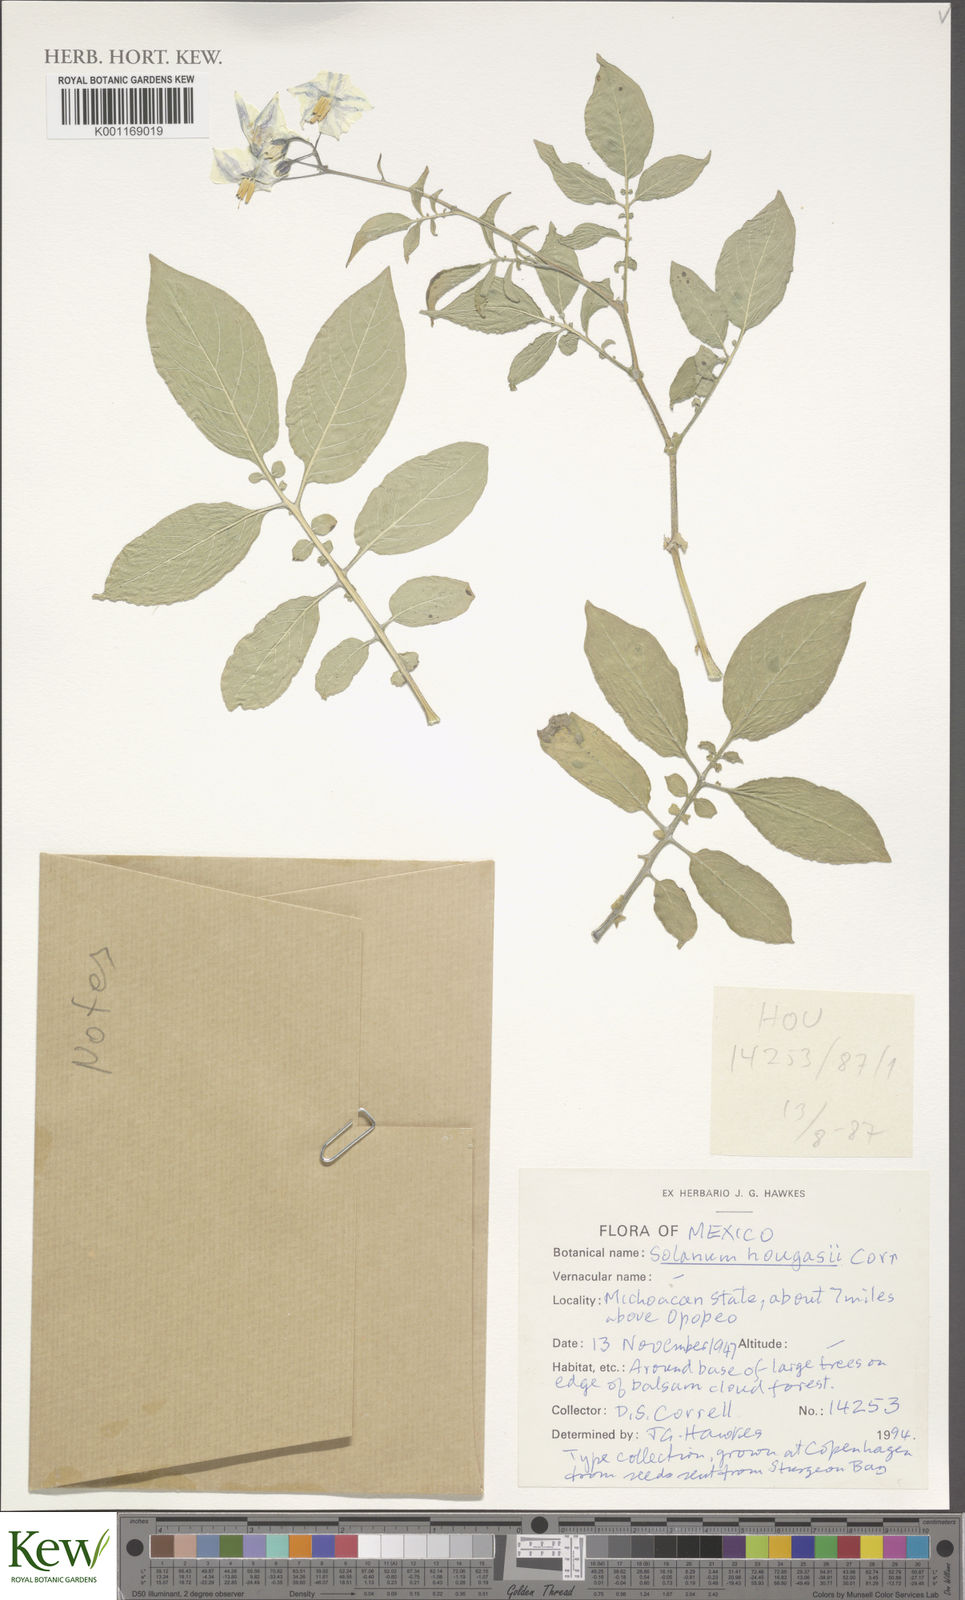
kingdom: Plantae
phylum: Tracheophyta
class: Magnoliopsida
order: Solanales
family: Solanaceae
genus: Solanum
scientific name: Solanum hougasii
